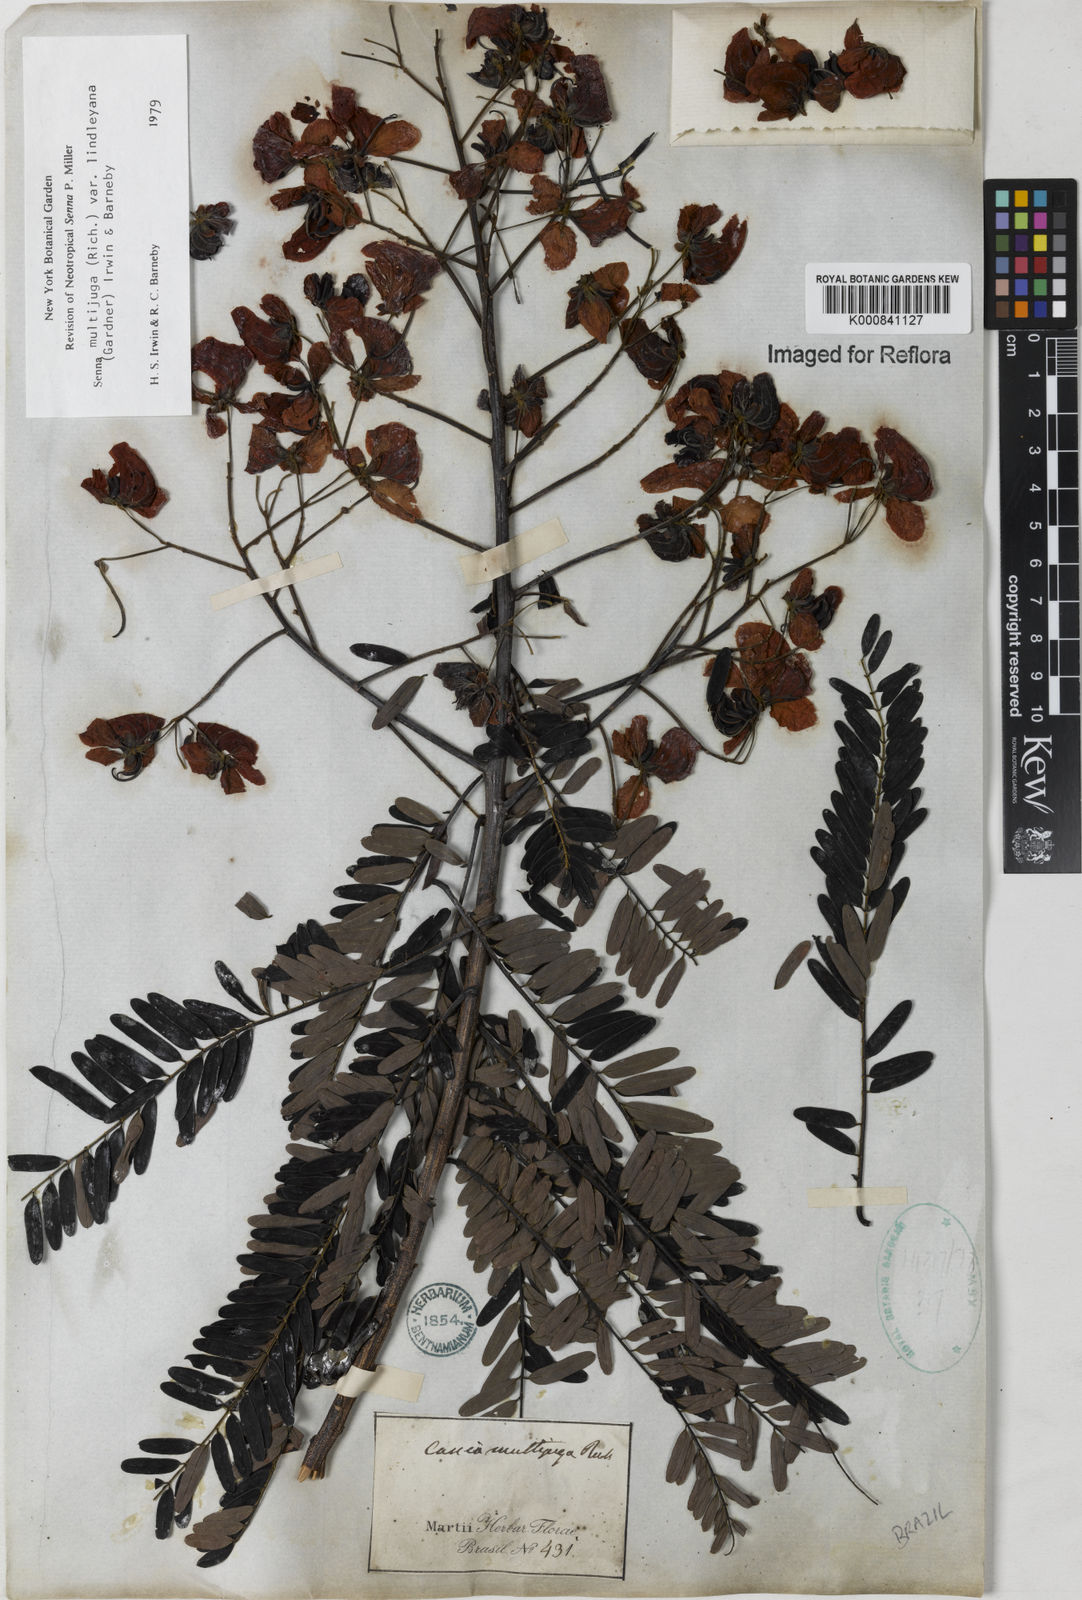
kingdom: Plantae
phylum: Tracheophyta
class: Magnoliopsida
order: Fabales
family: Fabaceae
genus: Senna
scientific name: Senna multijuga
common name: False sicklepod
